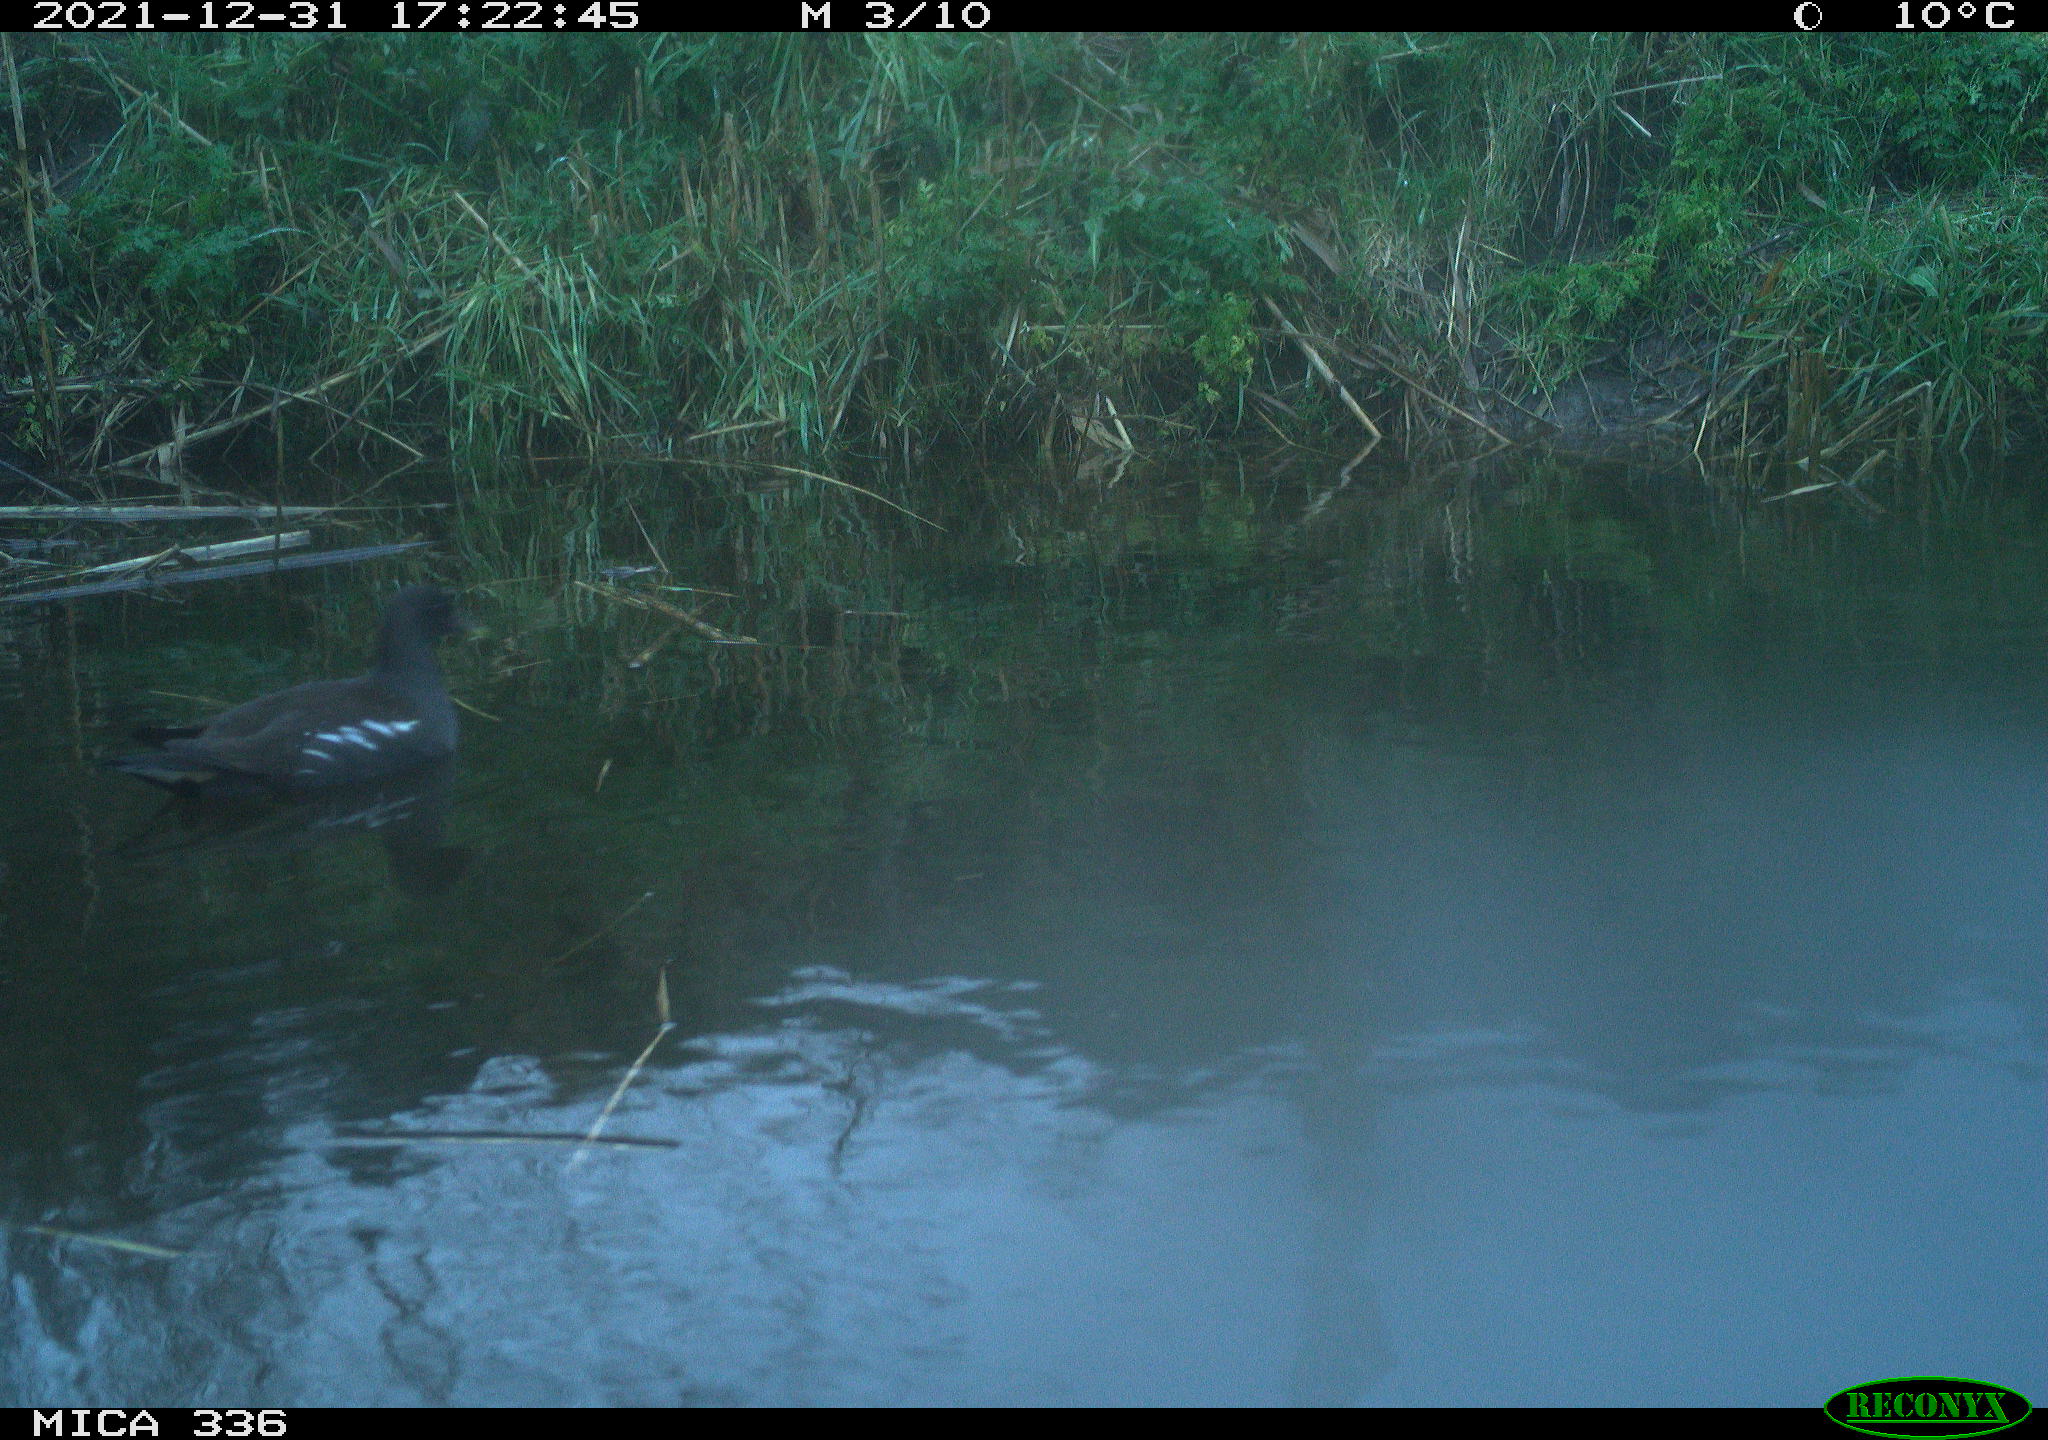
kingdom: Animalia
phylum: Chordata
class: Aves
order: Gruiformes
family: Rallidae
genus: Gallinula
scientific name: Gallinula chloropus
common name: Common moorhen
